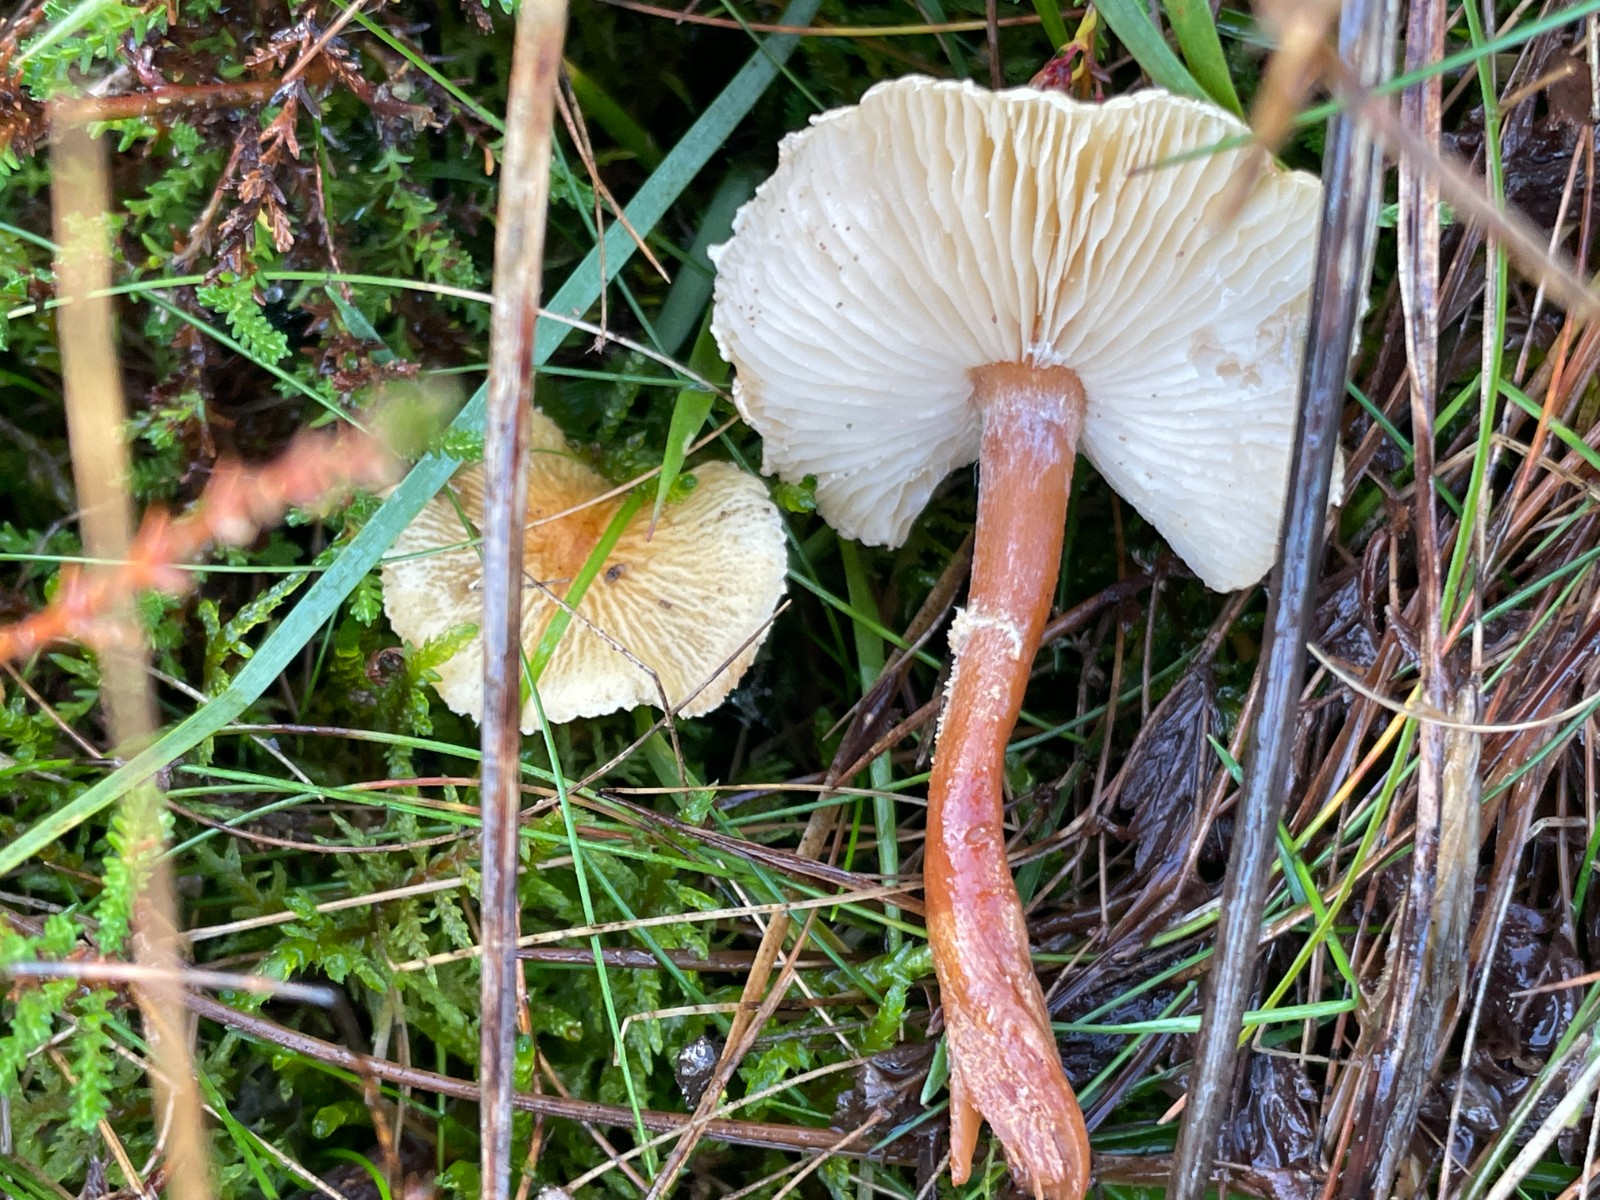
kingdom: Fungi
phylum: Basidiomycota
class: Agaricomycetes
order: Agaricales
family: Tricholomataceae
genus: Cystoderma
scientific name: Cystoderma amianthinum
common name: okkergul grynhat
